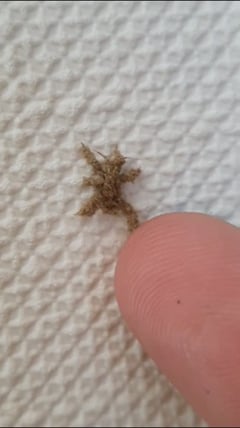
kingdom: Animalia
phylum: Arthropoda
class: Insecta
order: Hemiptera
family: Reduviidae
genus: Reduvius
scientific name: Reduvius personatus
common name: Masked hunter
